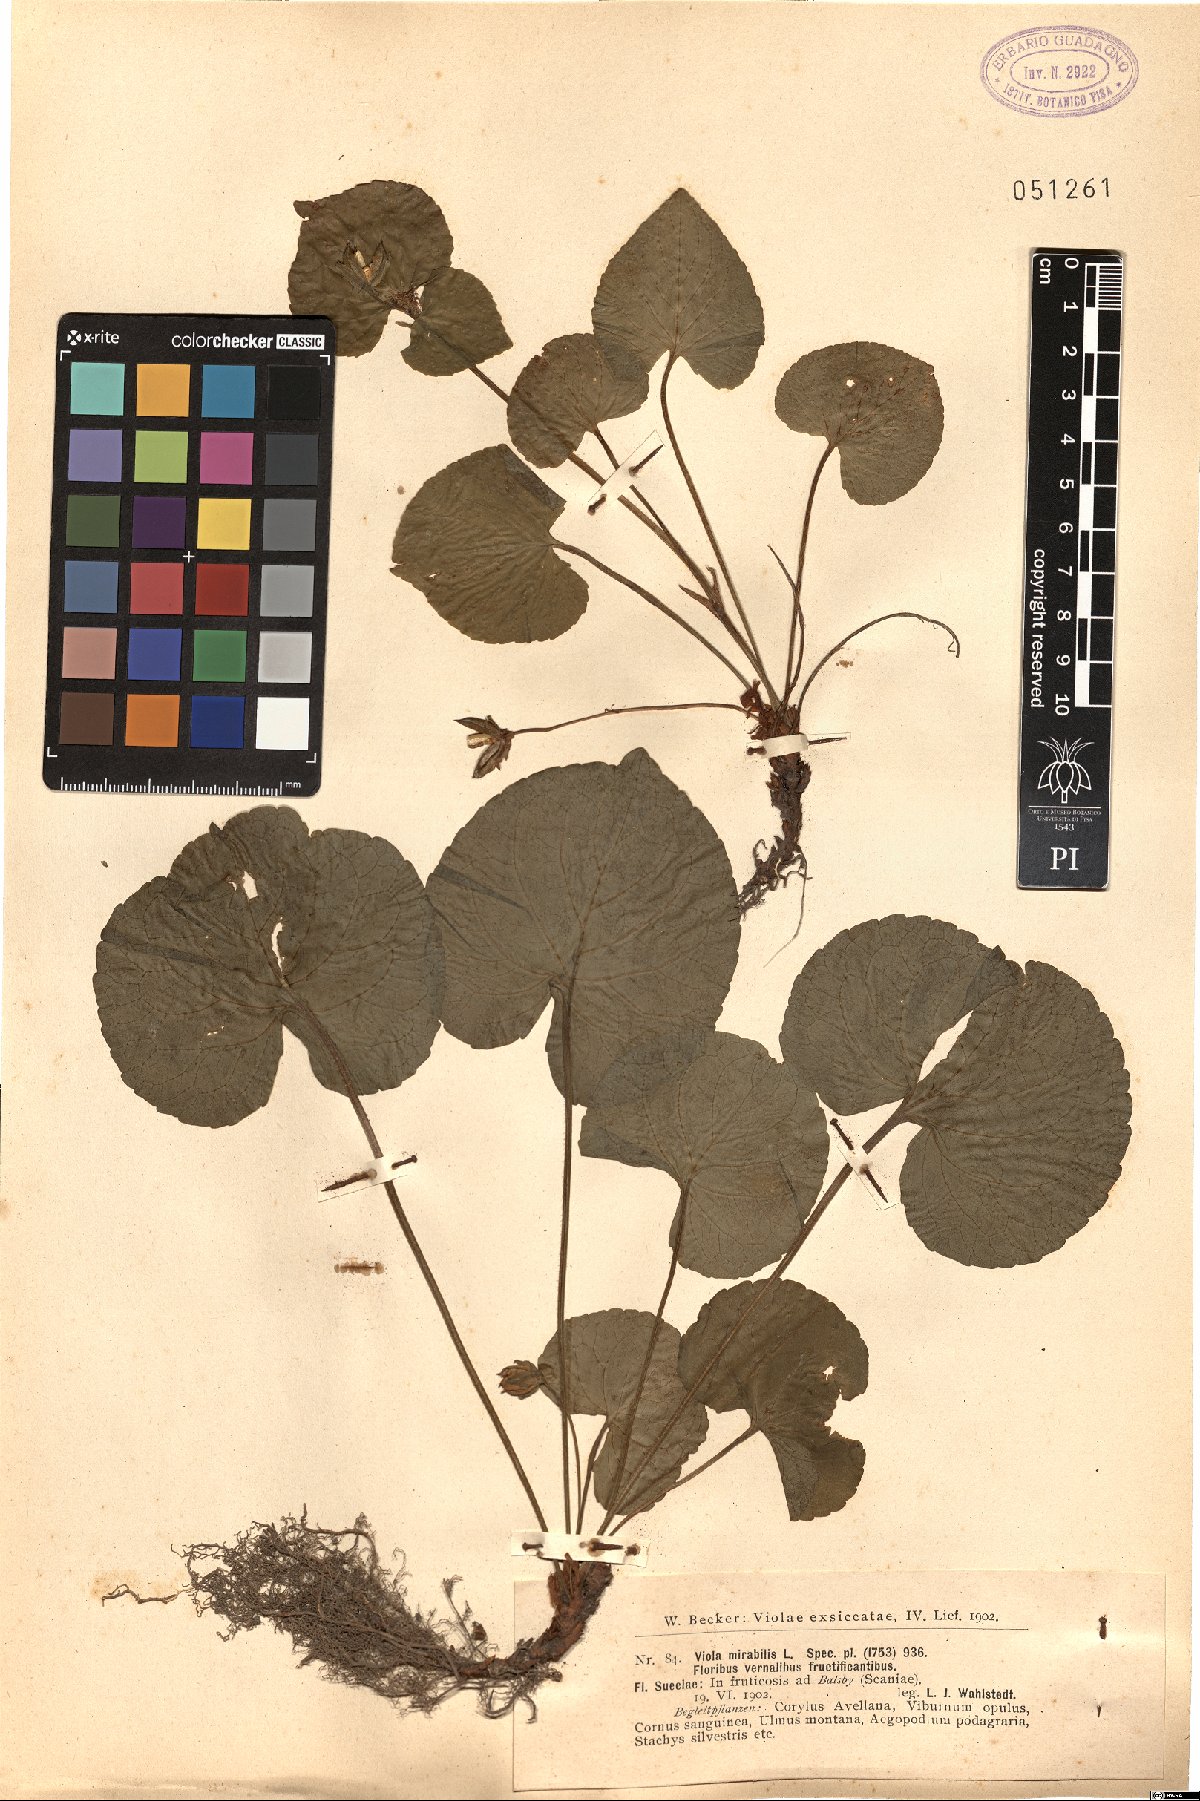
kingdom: Plantae
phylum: Tracheophyta
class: Magnoliopsida
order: Malpighiales
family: Violaceae
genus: Viola
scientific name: Viola mirabilis
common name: Wonder violet
